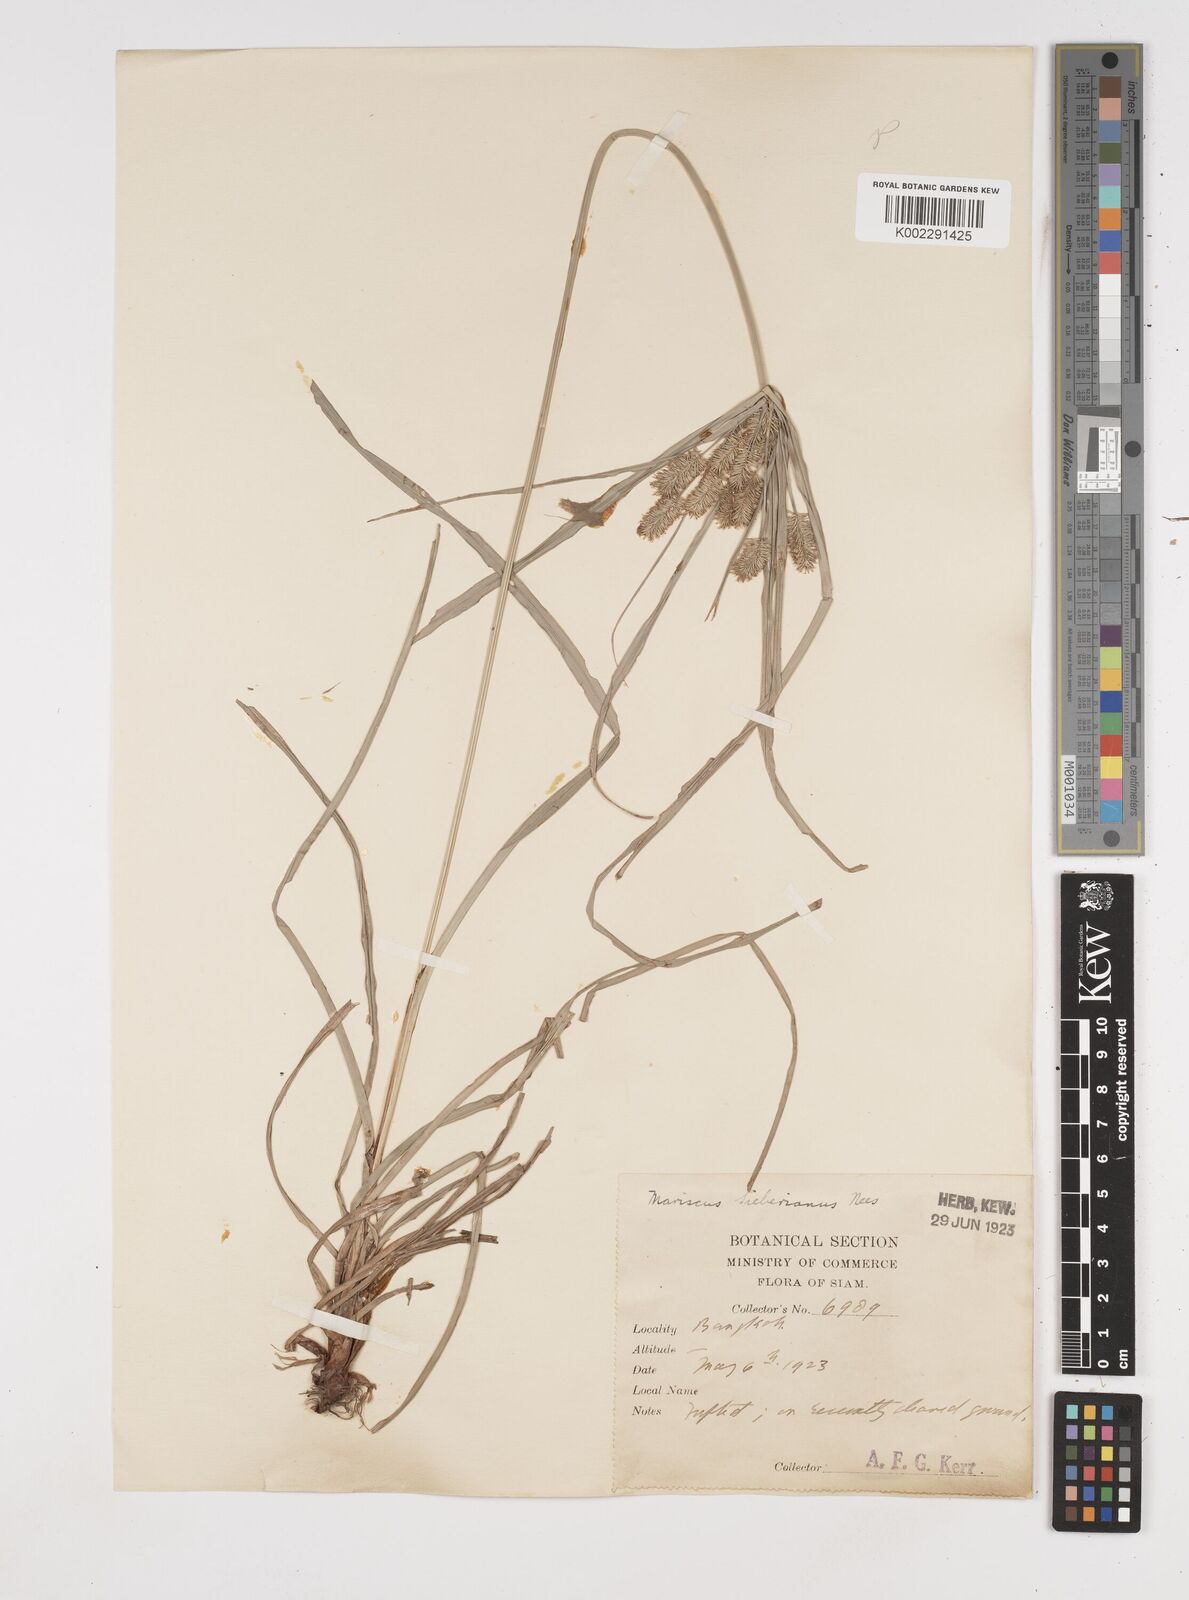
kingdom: Plantae
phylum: Tracheophyta
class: Liliopsida
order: Poales
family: Cyperaceae
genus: Cyperus
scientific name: Cyperus cyperoides
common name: Pacific island flat sedge
